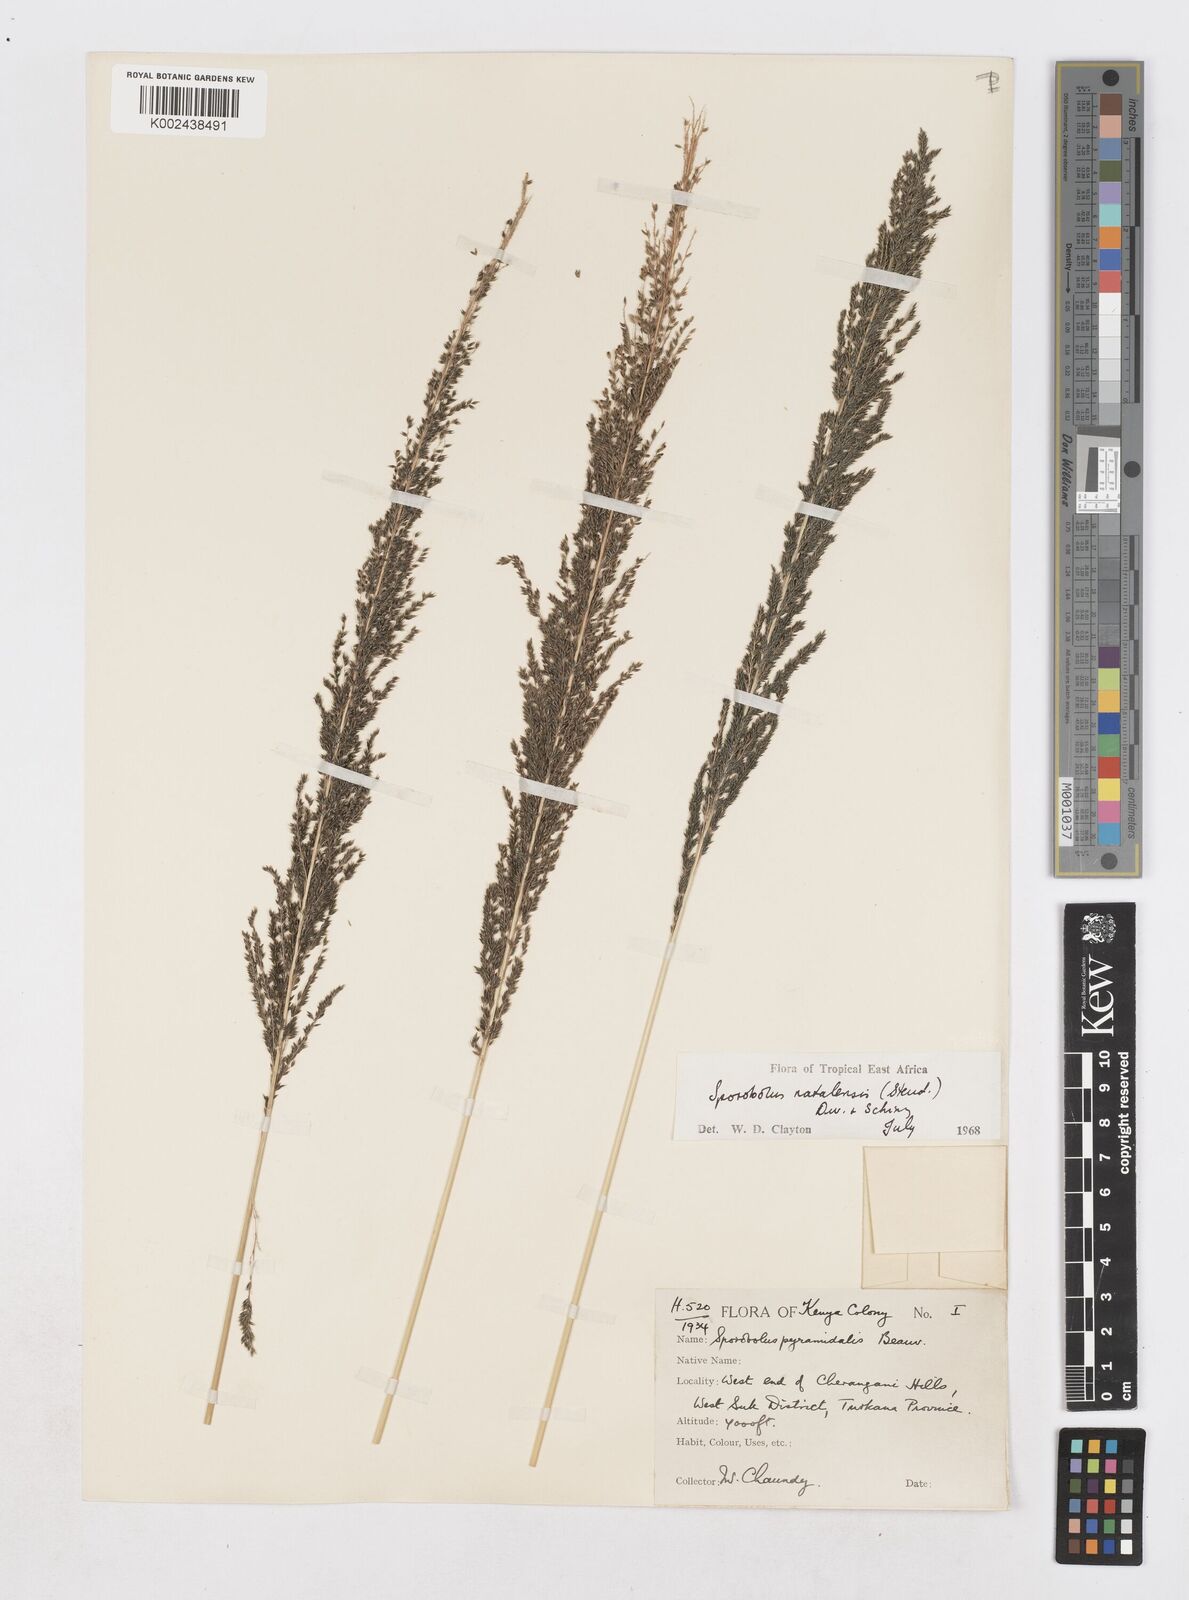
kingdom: Plantae
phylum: Tracheophyta
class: Liliopsida
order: Poales
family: Poaceae
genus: Sporobolus
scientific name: Sporobolus natalensis
